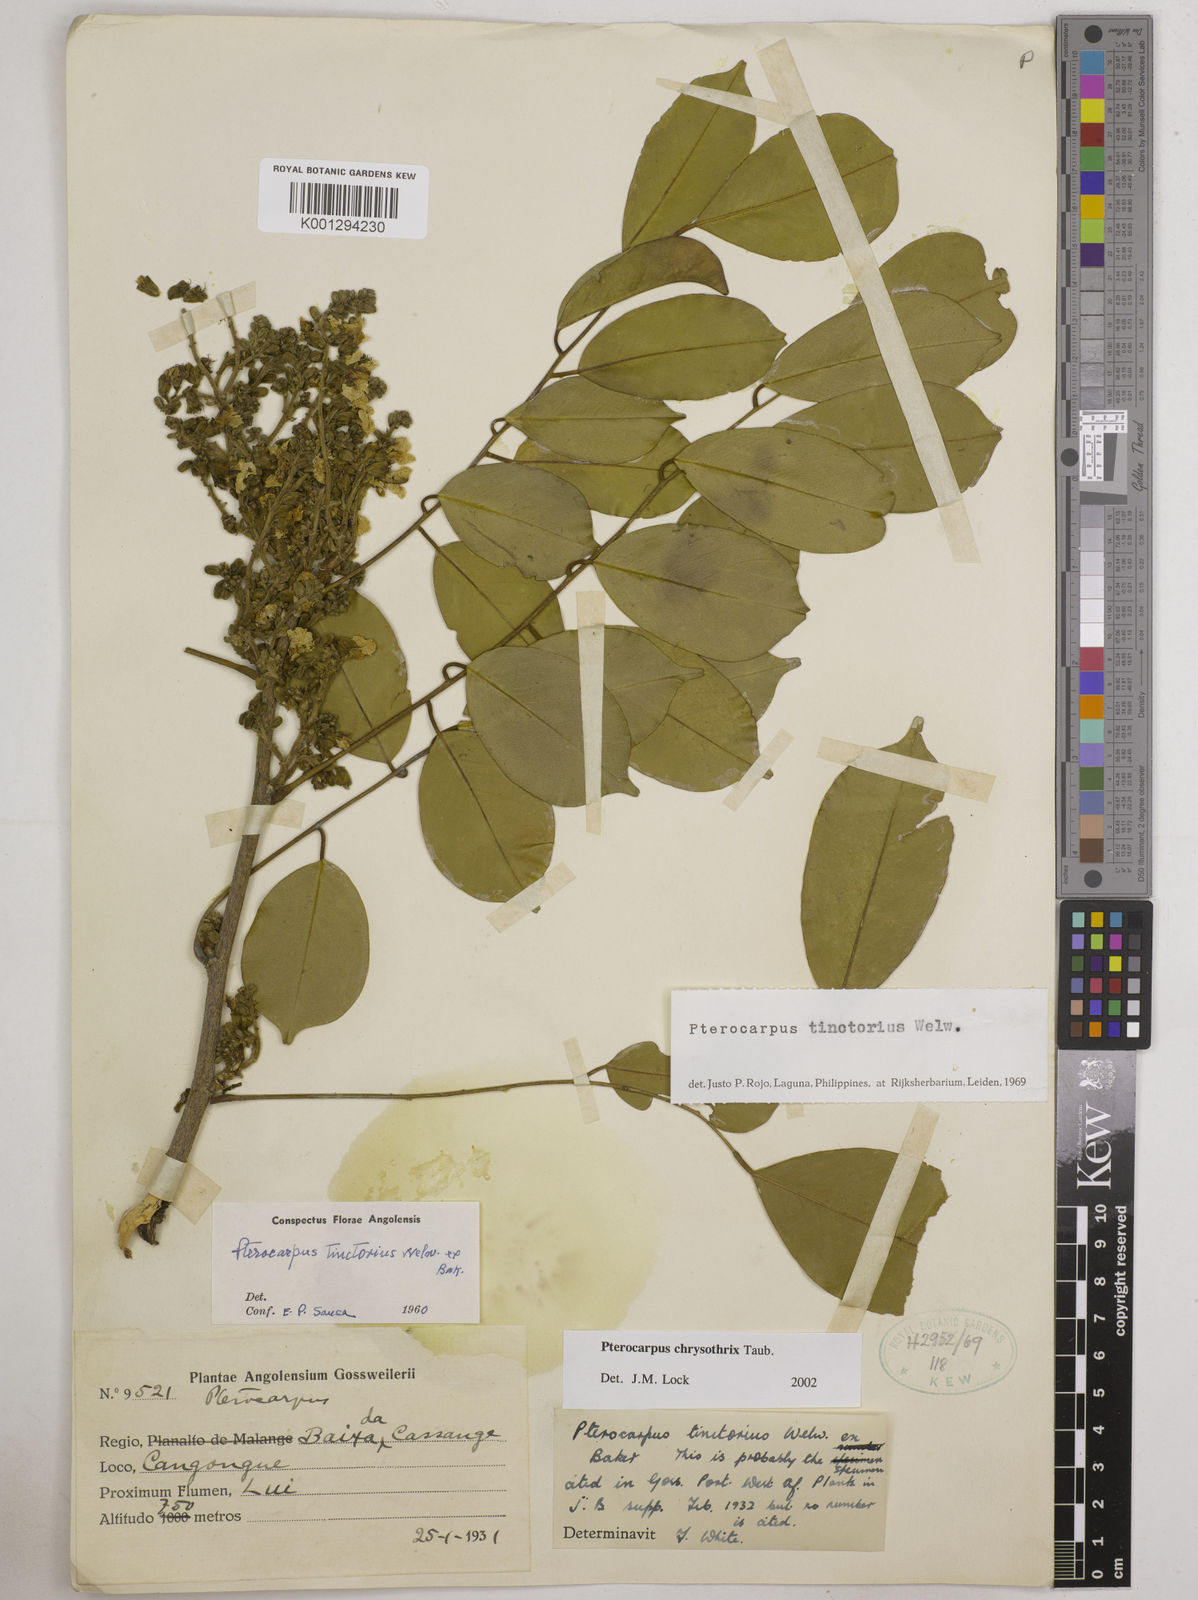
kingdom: Plantae
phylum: Tracheophyta
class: Magnoliopsida
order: Fabales
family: Fabaceae
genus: Pterocarpus
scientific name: Pterocarpus tinctorius
